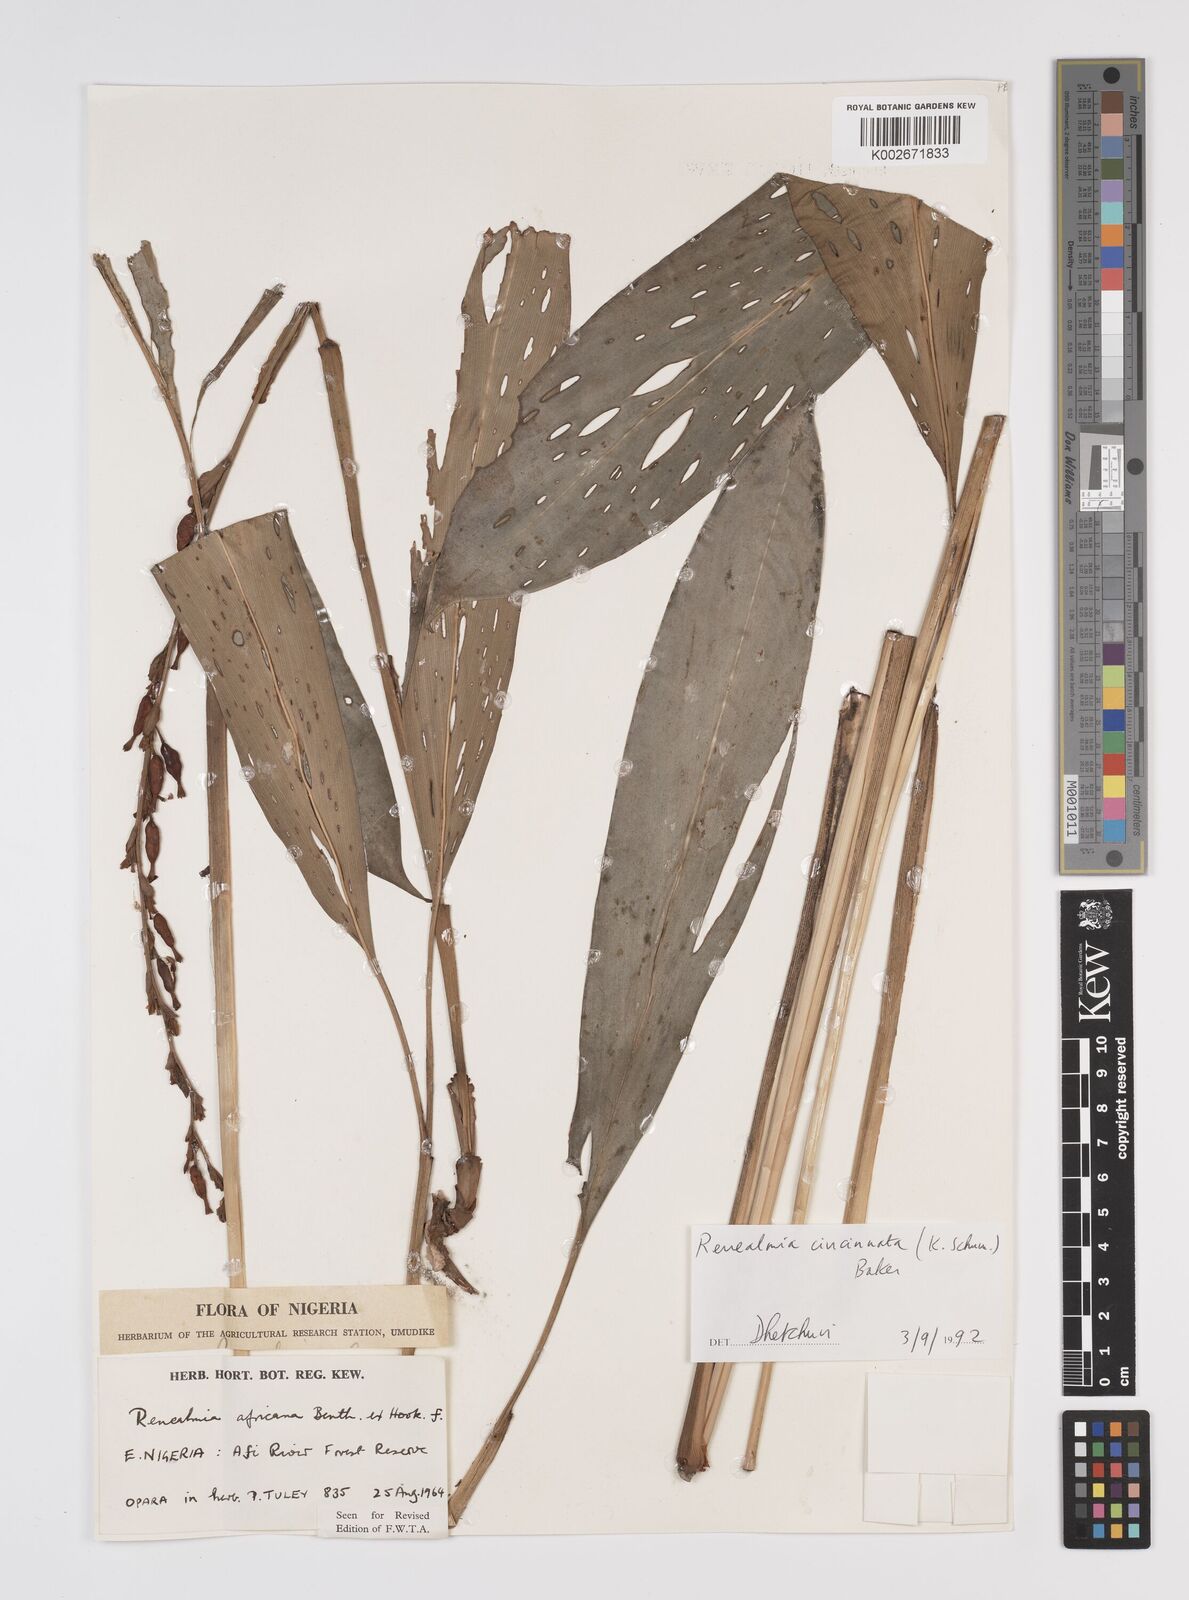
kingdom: Plantae
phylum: Tracheophyta
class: Liliopsida
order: Zingiberales
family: Zingiberaceae
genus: Renealmia
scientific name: Renealmia africana
